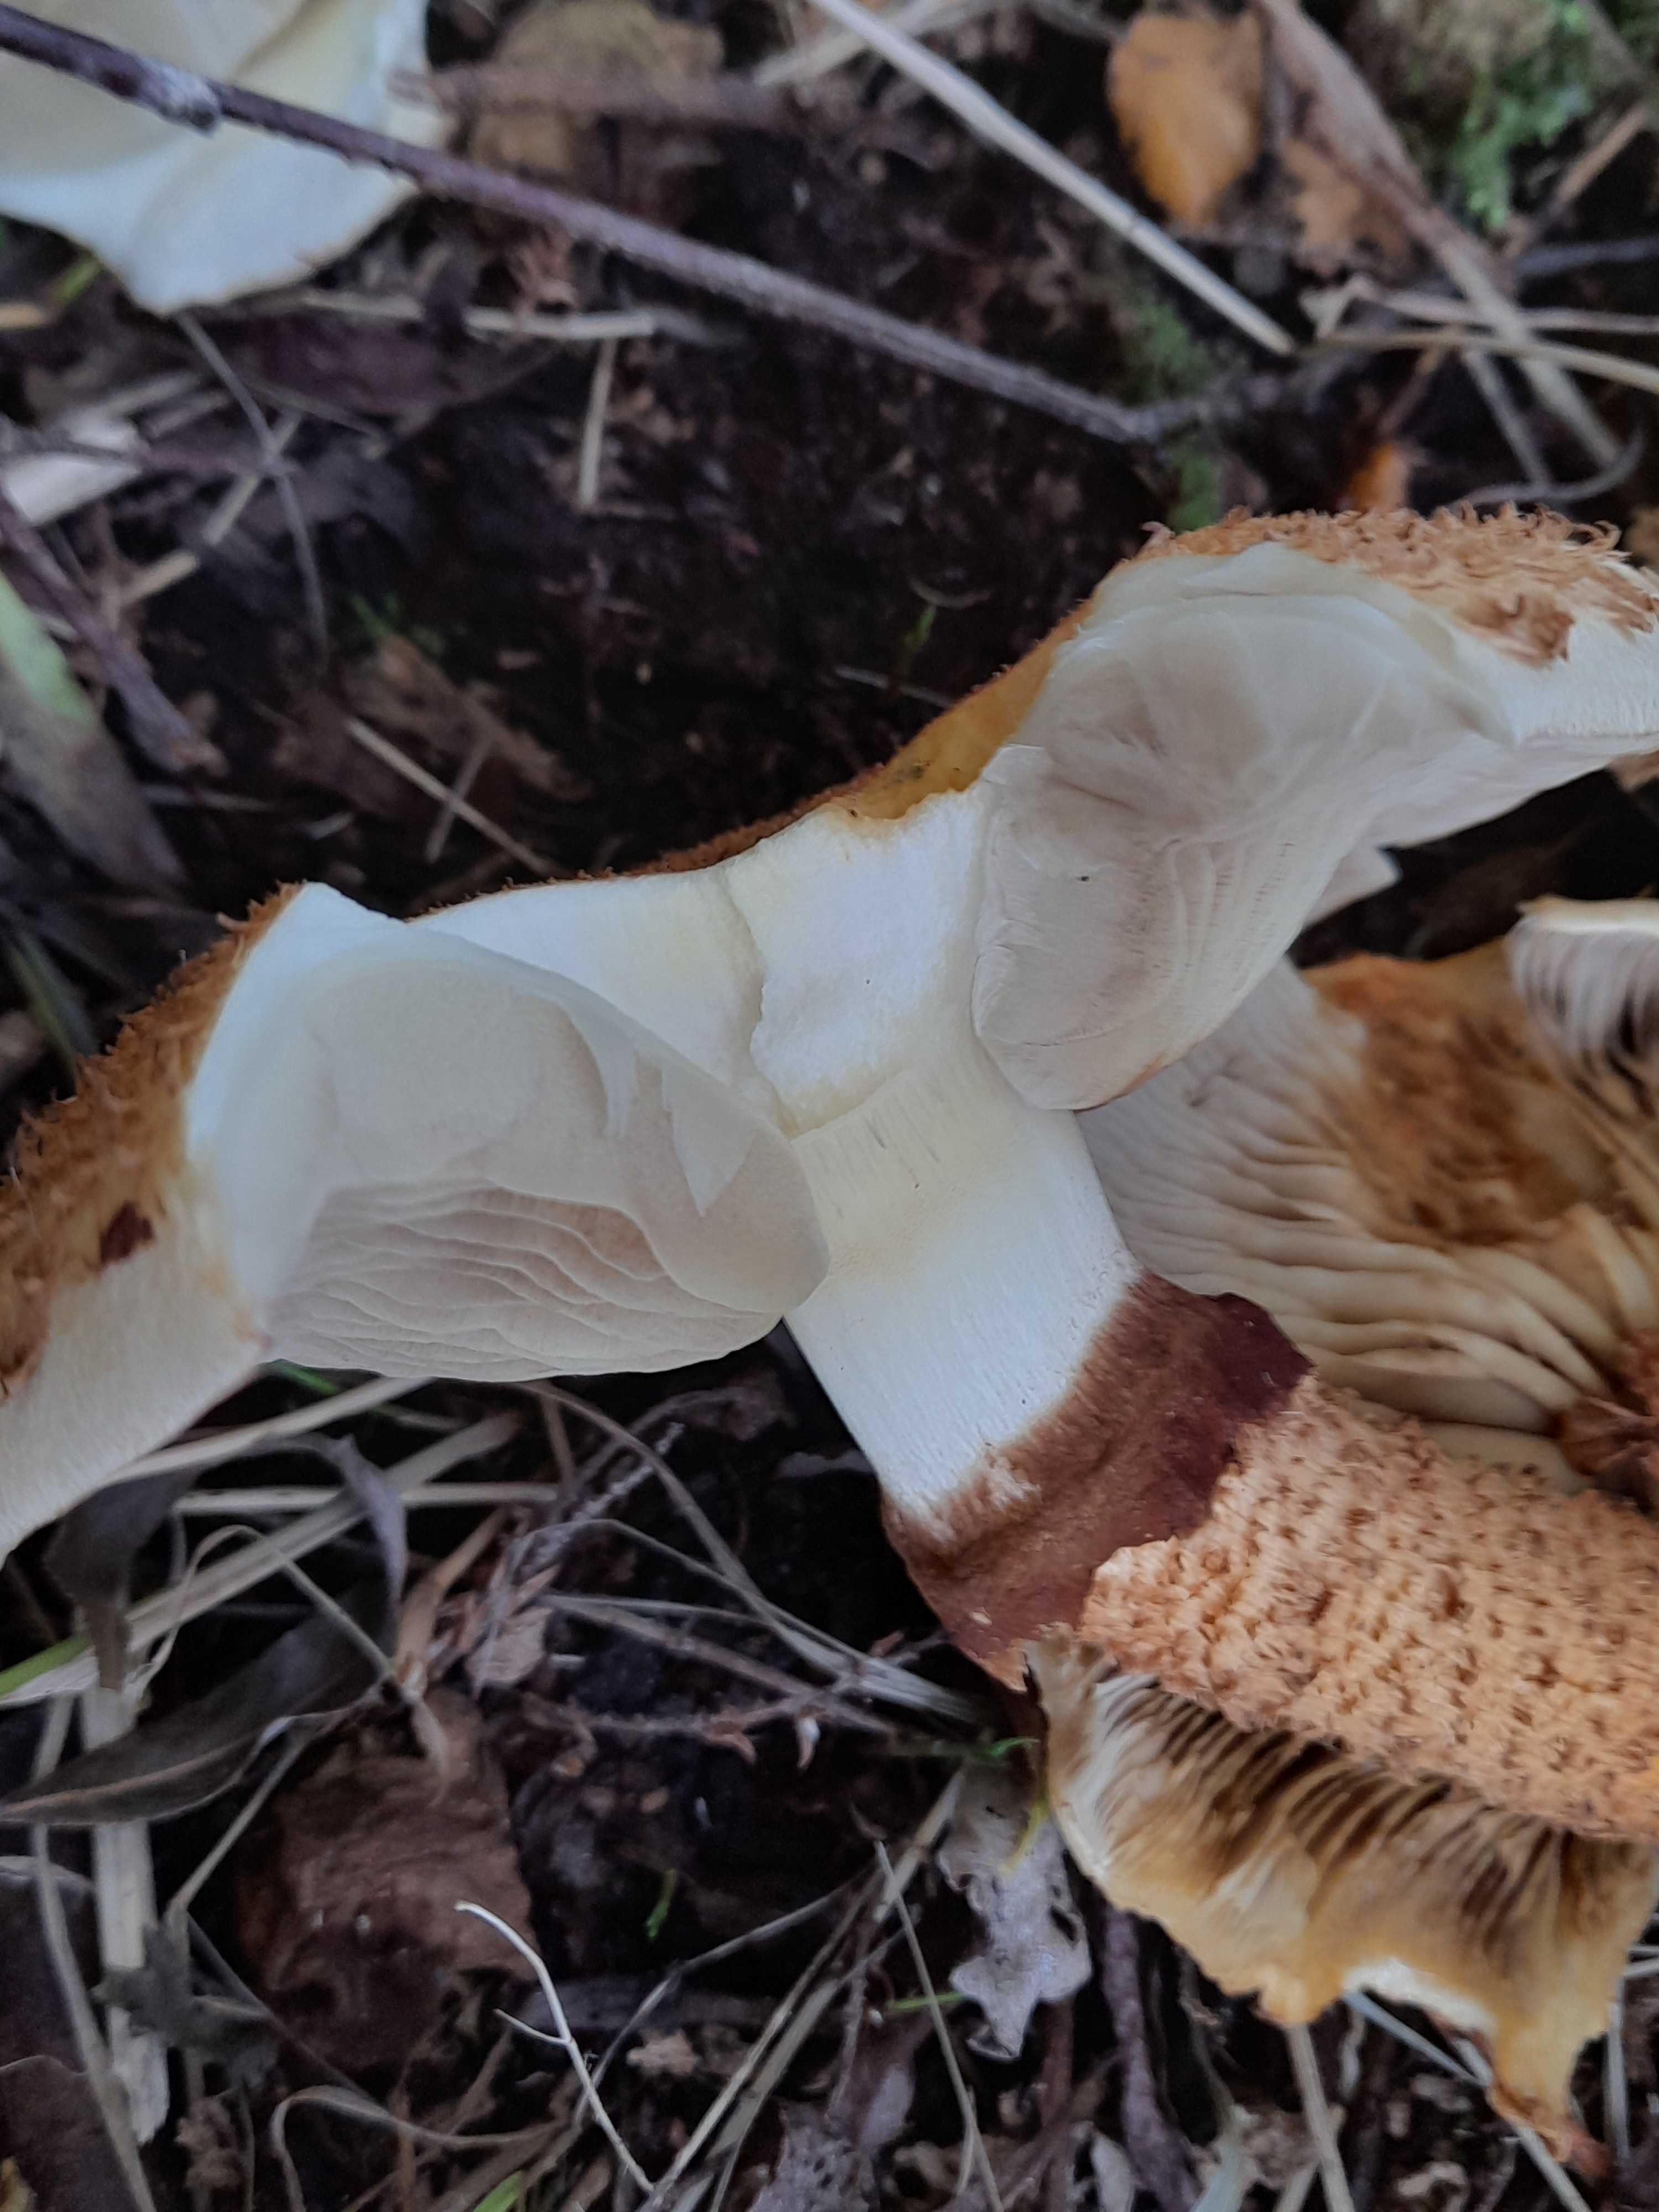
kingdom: Fungi
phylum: Basidiomycota
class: Agaricomycetes
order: Agaricales
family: Strophariaceae
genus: Pholiota
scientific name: Pholiota squarrosa
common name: krumskællet skælhat
